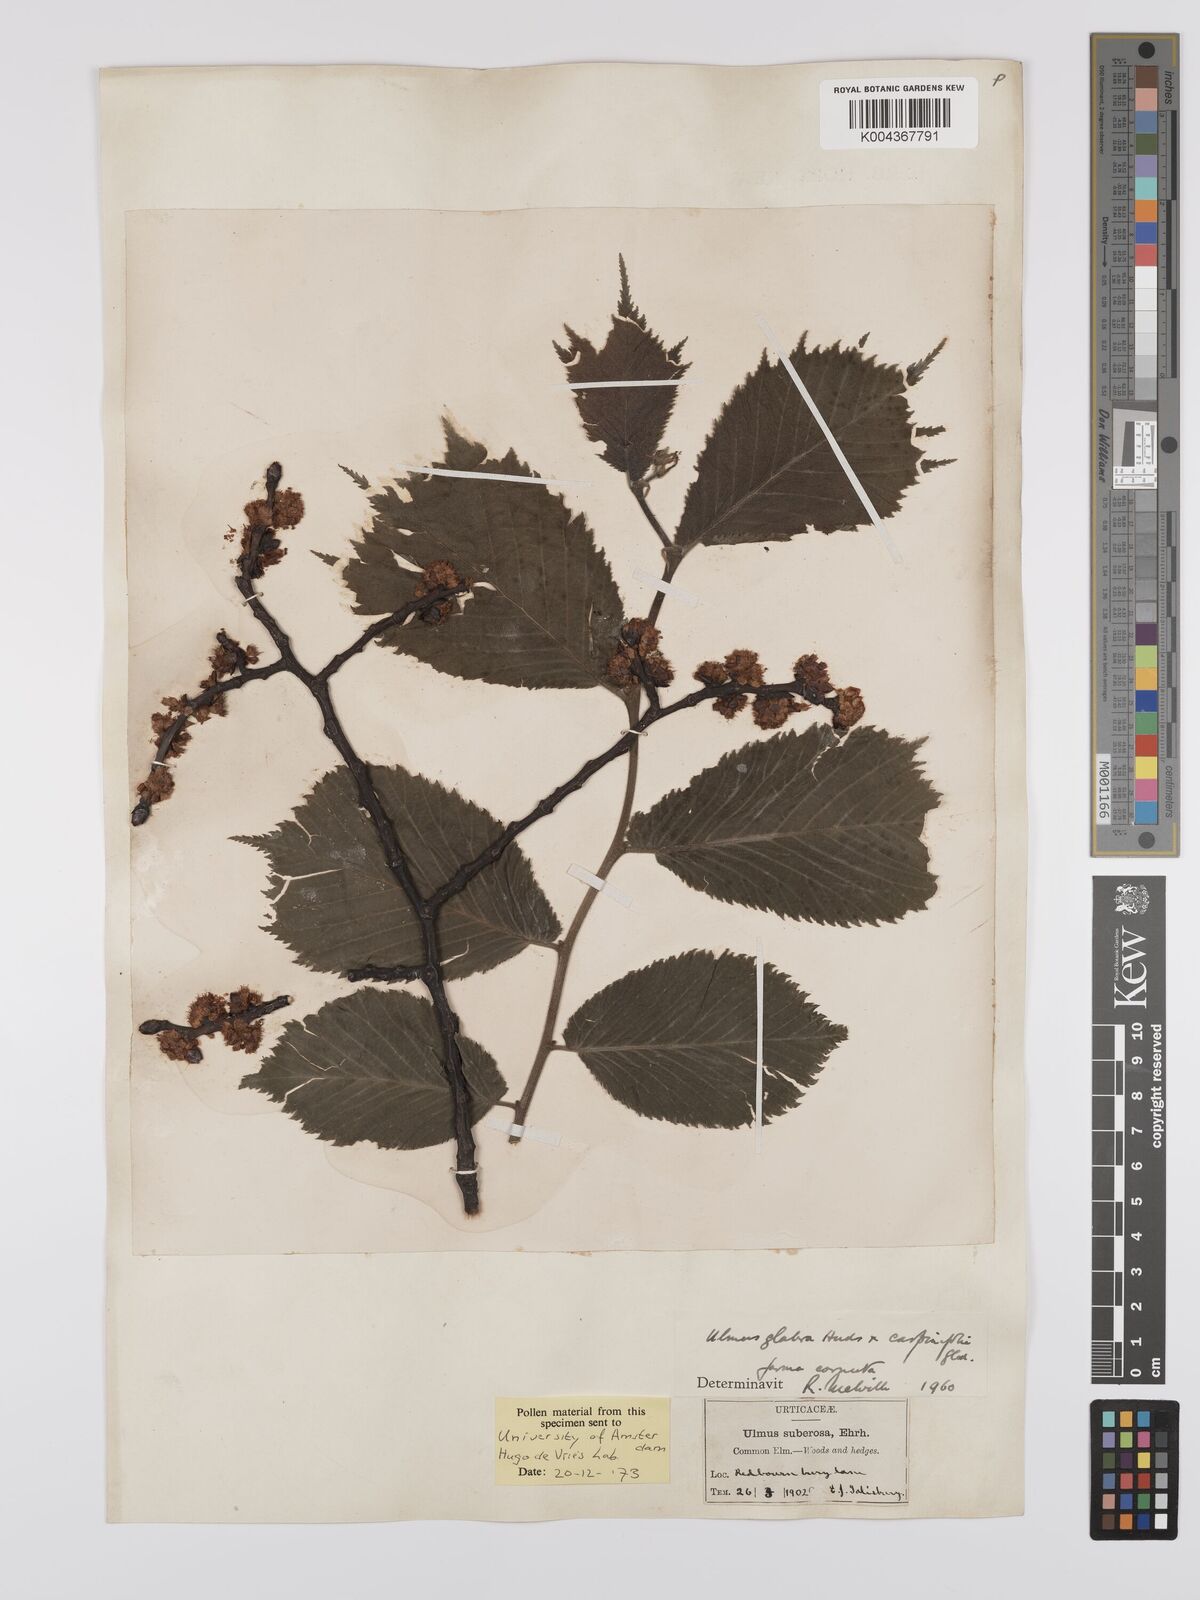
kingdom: Plantae
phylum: Tracheophyta
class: Magnoliopsida
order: Rosales
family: Ulmaceae
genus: Ulmus
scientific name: Ulmus glabra
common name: Wych elm
